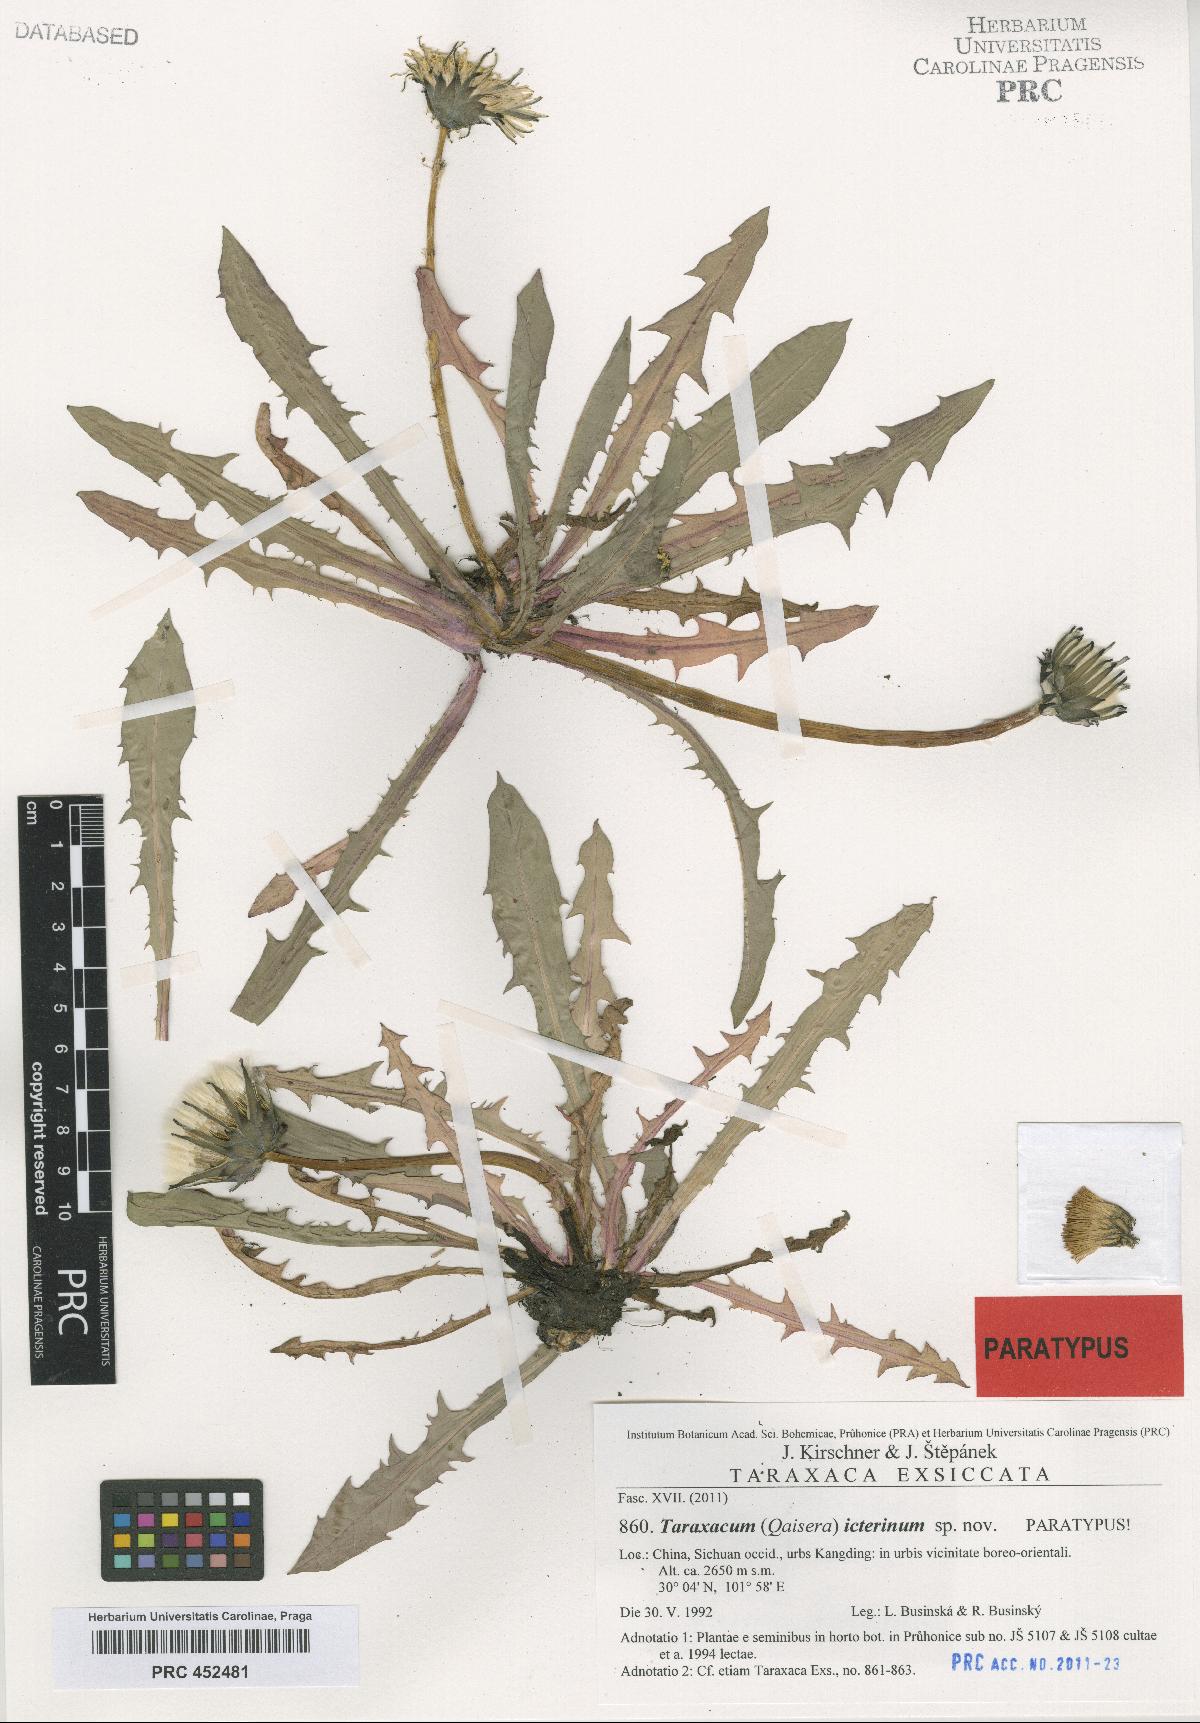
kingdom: Plantae
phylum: Tracheophyta
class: Magnoliopsida
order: Asterales
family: Asteraceae
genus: Taraxacum
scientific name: Taraxacum icterinum
